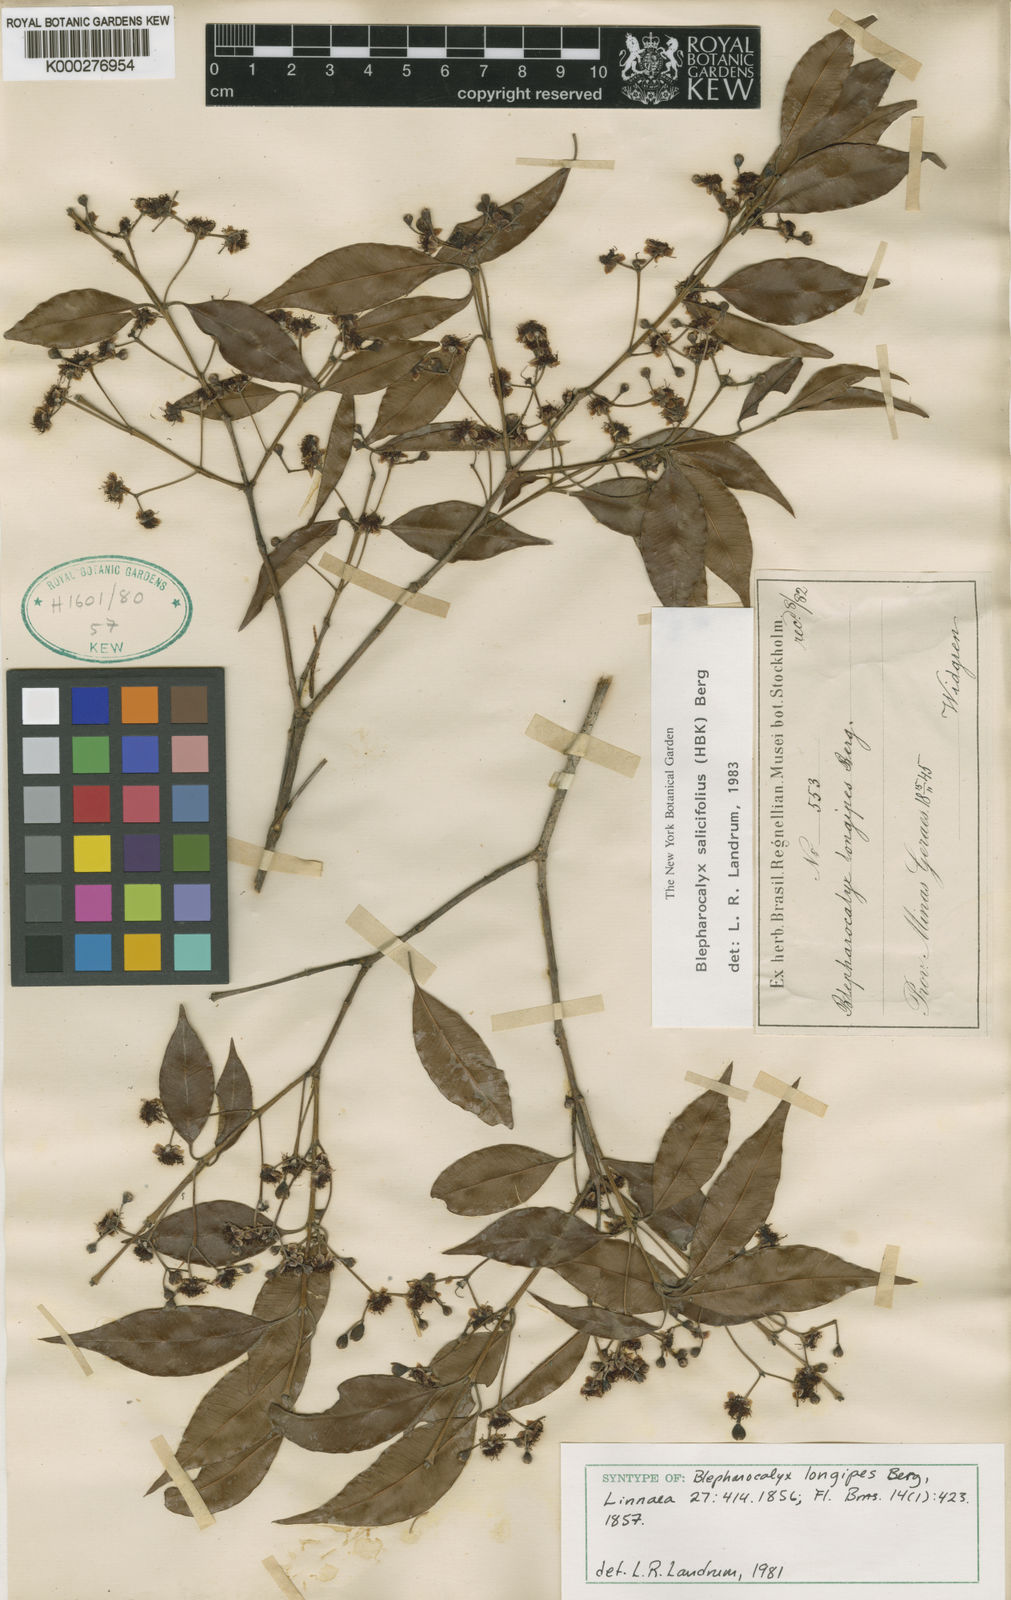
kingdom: Plantae
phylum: Tracheophyta
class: Magnoliopsida
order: Myrtales
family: Myrtaceae
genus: Blepharocalyx
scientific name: Blepharocalyx salicifolius
